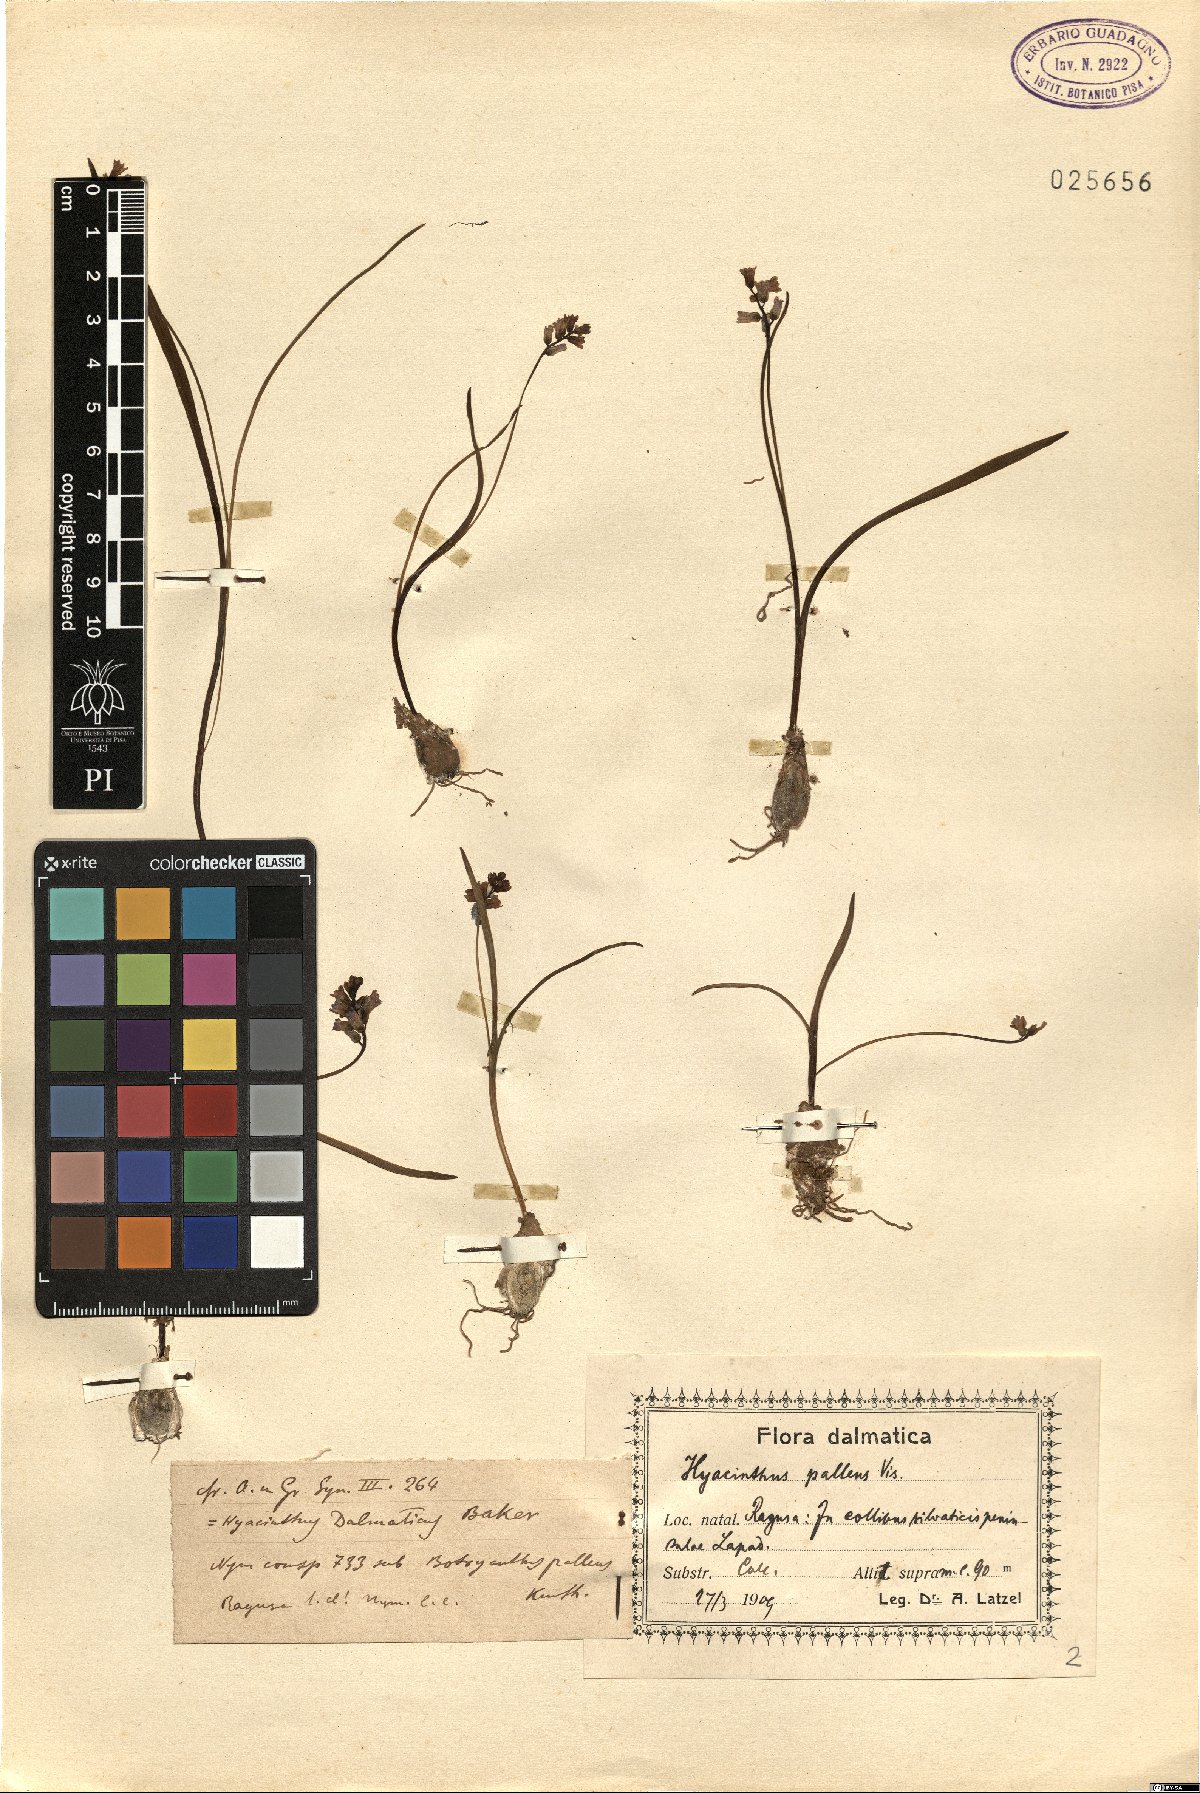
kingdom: Plantae
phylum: Tracheophyta
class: Liliopsida
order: Asparagales
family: Asparagaceae
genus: Hyacinthus
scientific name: Hyacinthus pallens
